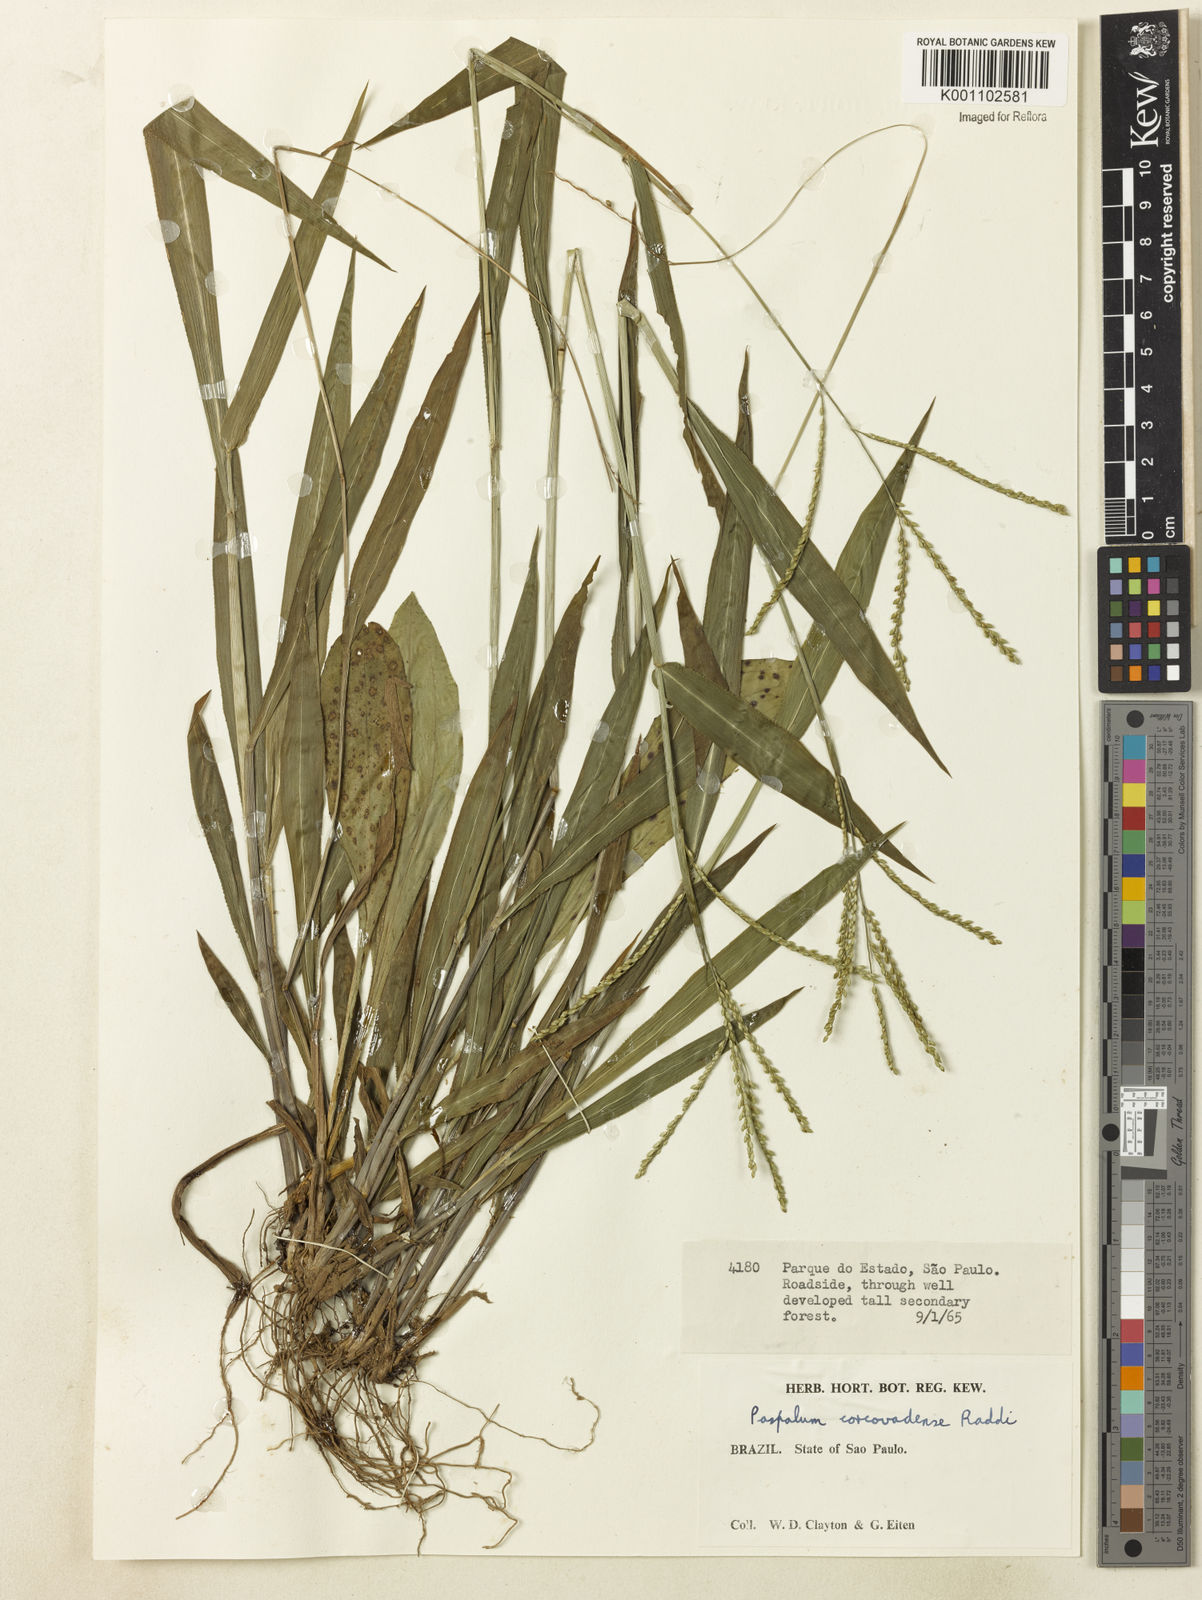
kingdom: Plantae
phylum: Tracheophyta
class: Liliopsida
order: Poales
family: Poaceae
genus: Paspalum
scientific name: Paspalum corcovadense
